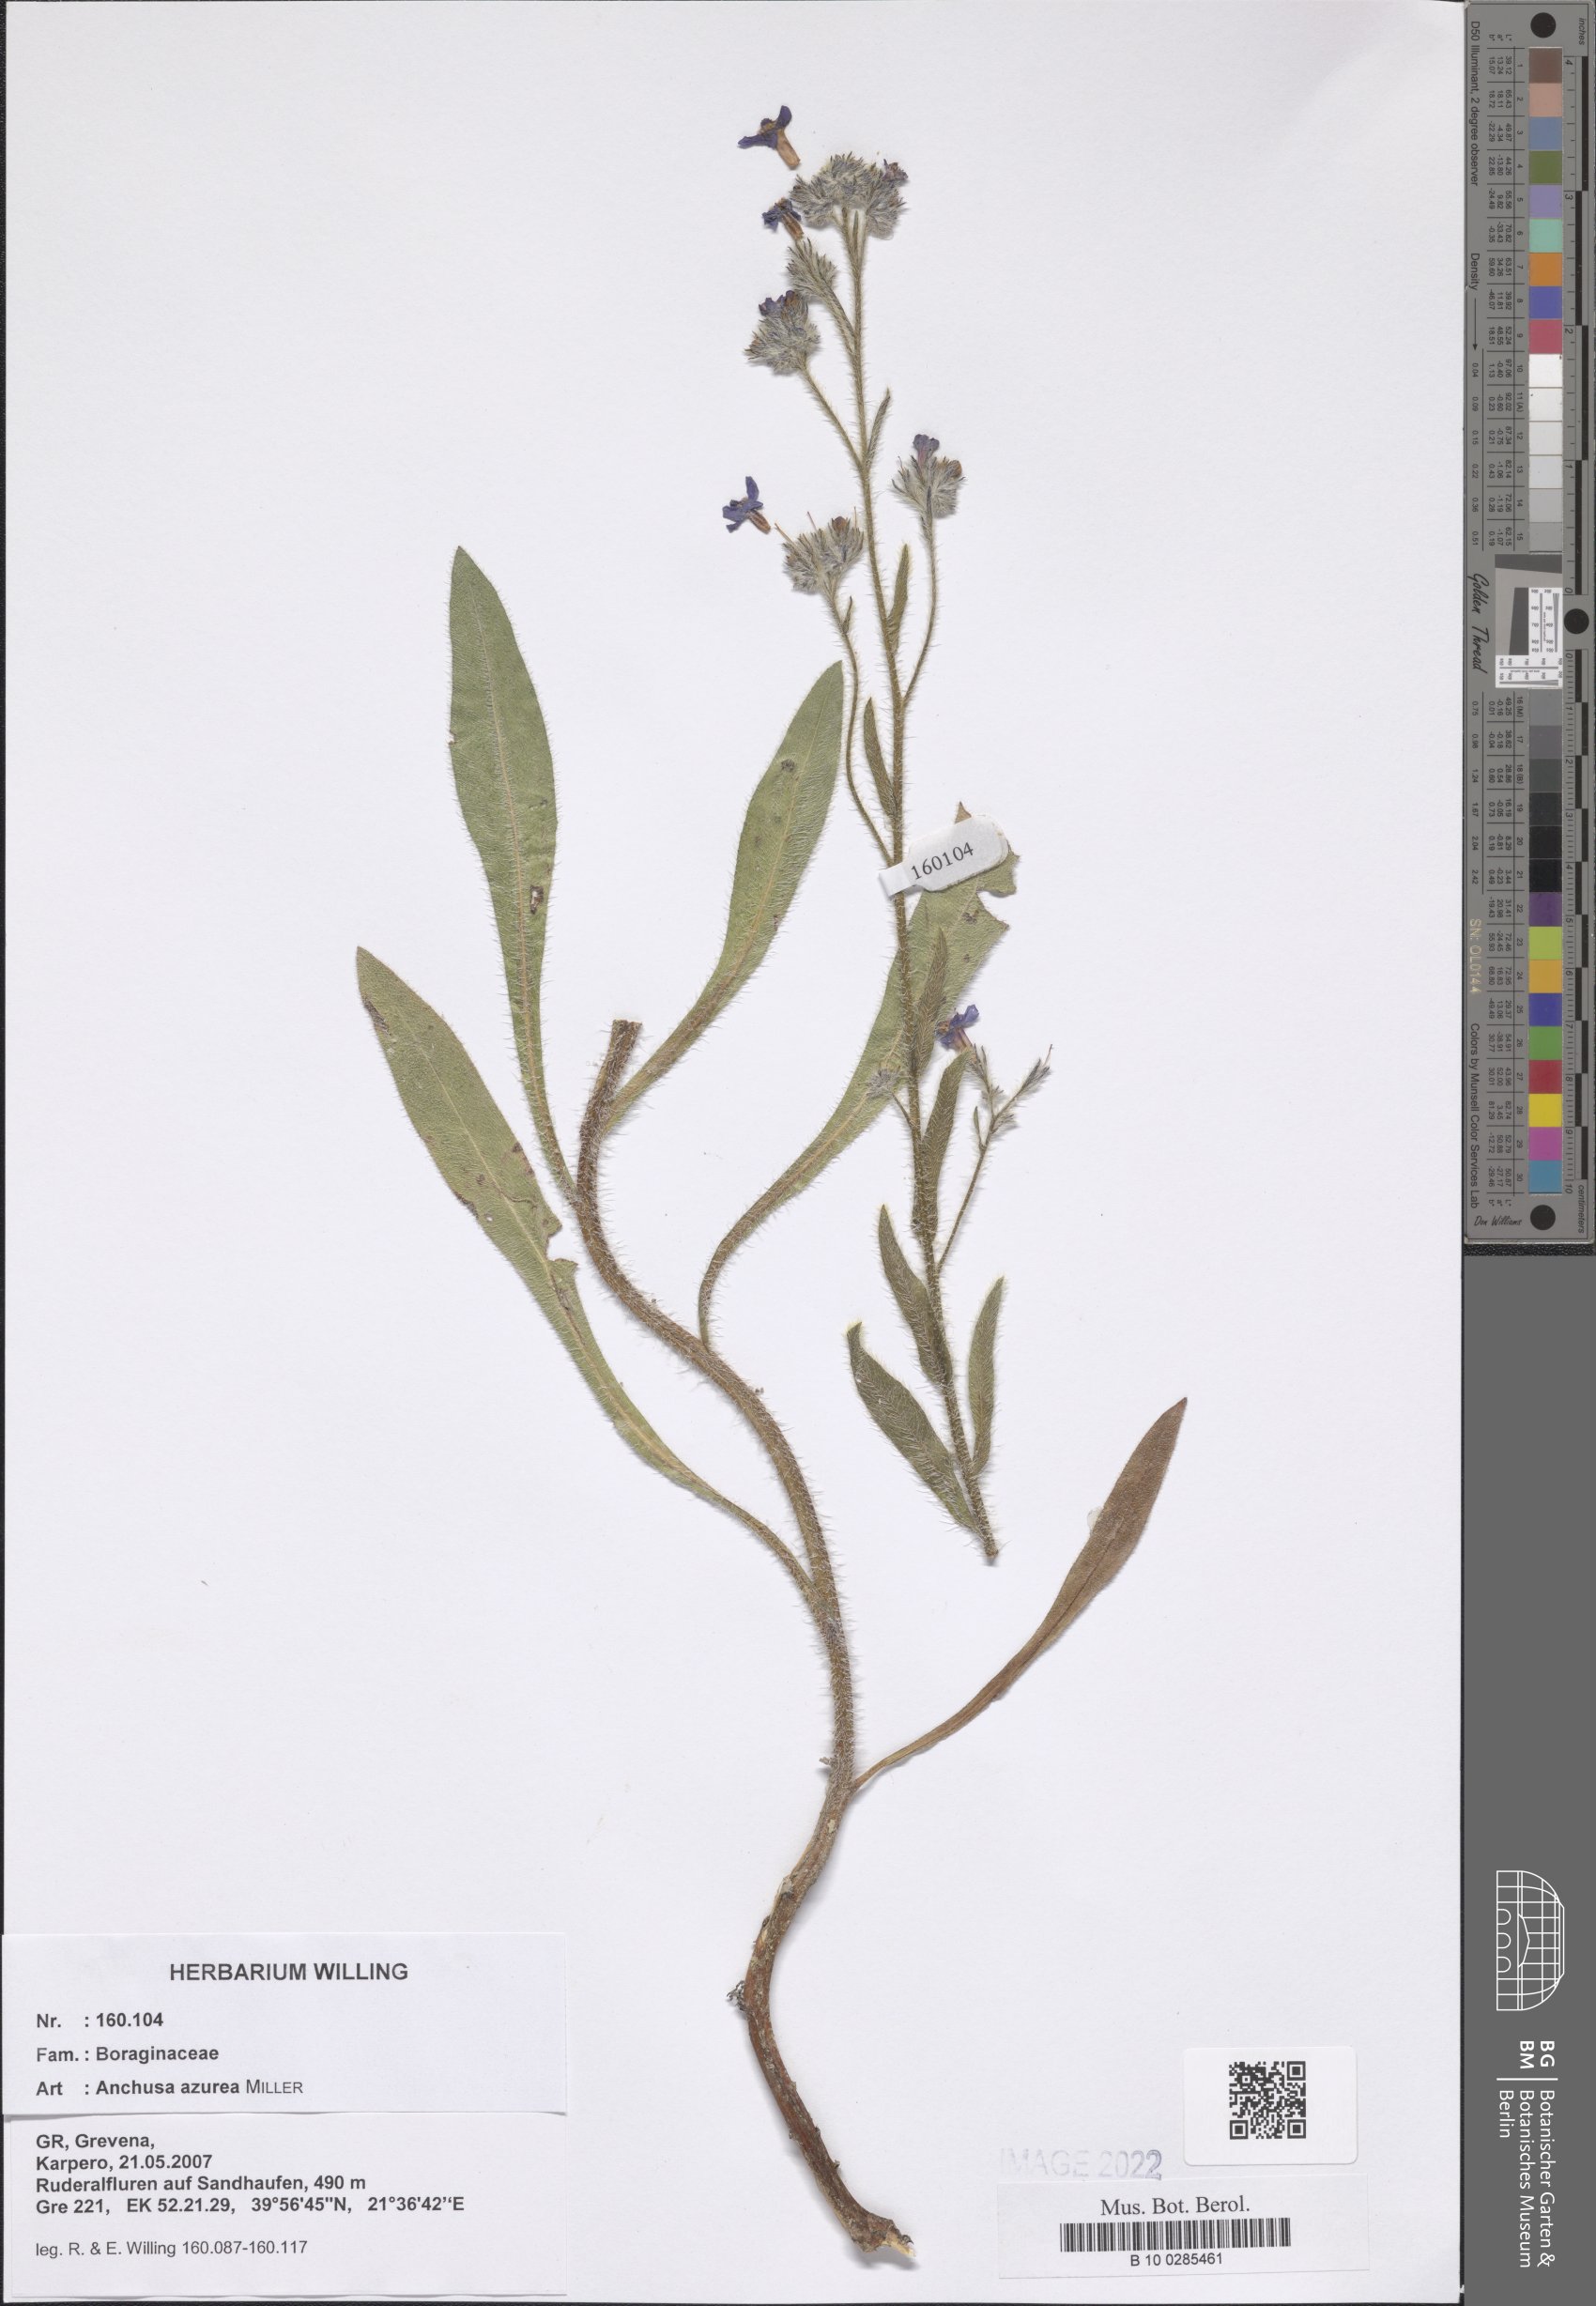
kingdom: Plantae
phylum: Tracheophyta
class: Magnoliopsida
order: Boraginales
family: Boraginaceae
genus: Anchusa
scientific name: Anchusa azurea
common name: Garden anchusa
